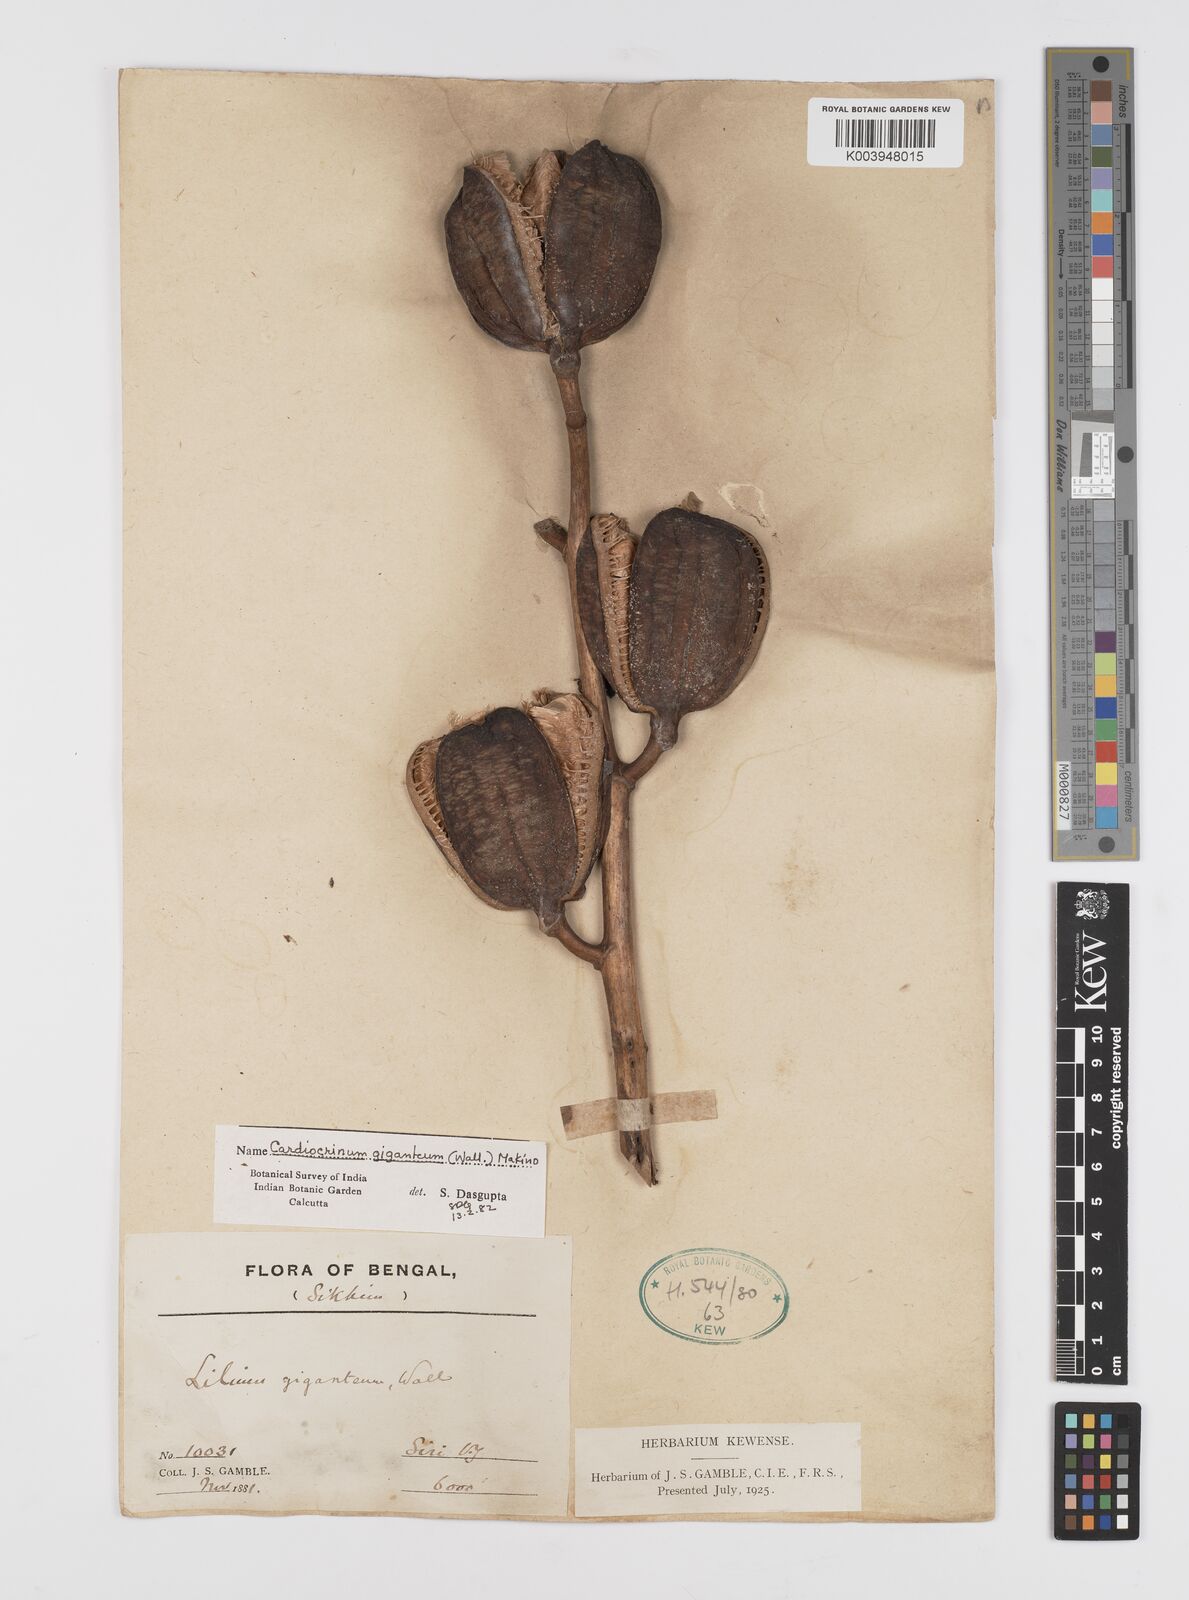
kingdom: Plantae
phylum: Tracheophyta
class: Liliopsida
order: Liliales
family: Liliaceae
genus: Cardiocrinum
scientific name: Cardiocrinum giganteum
